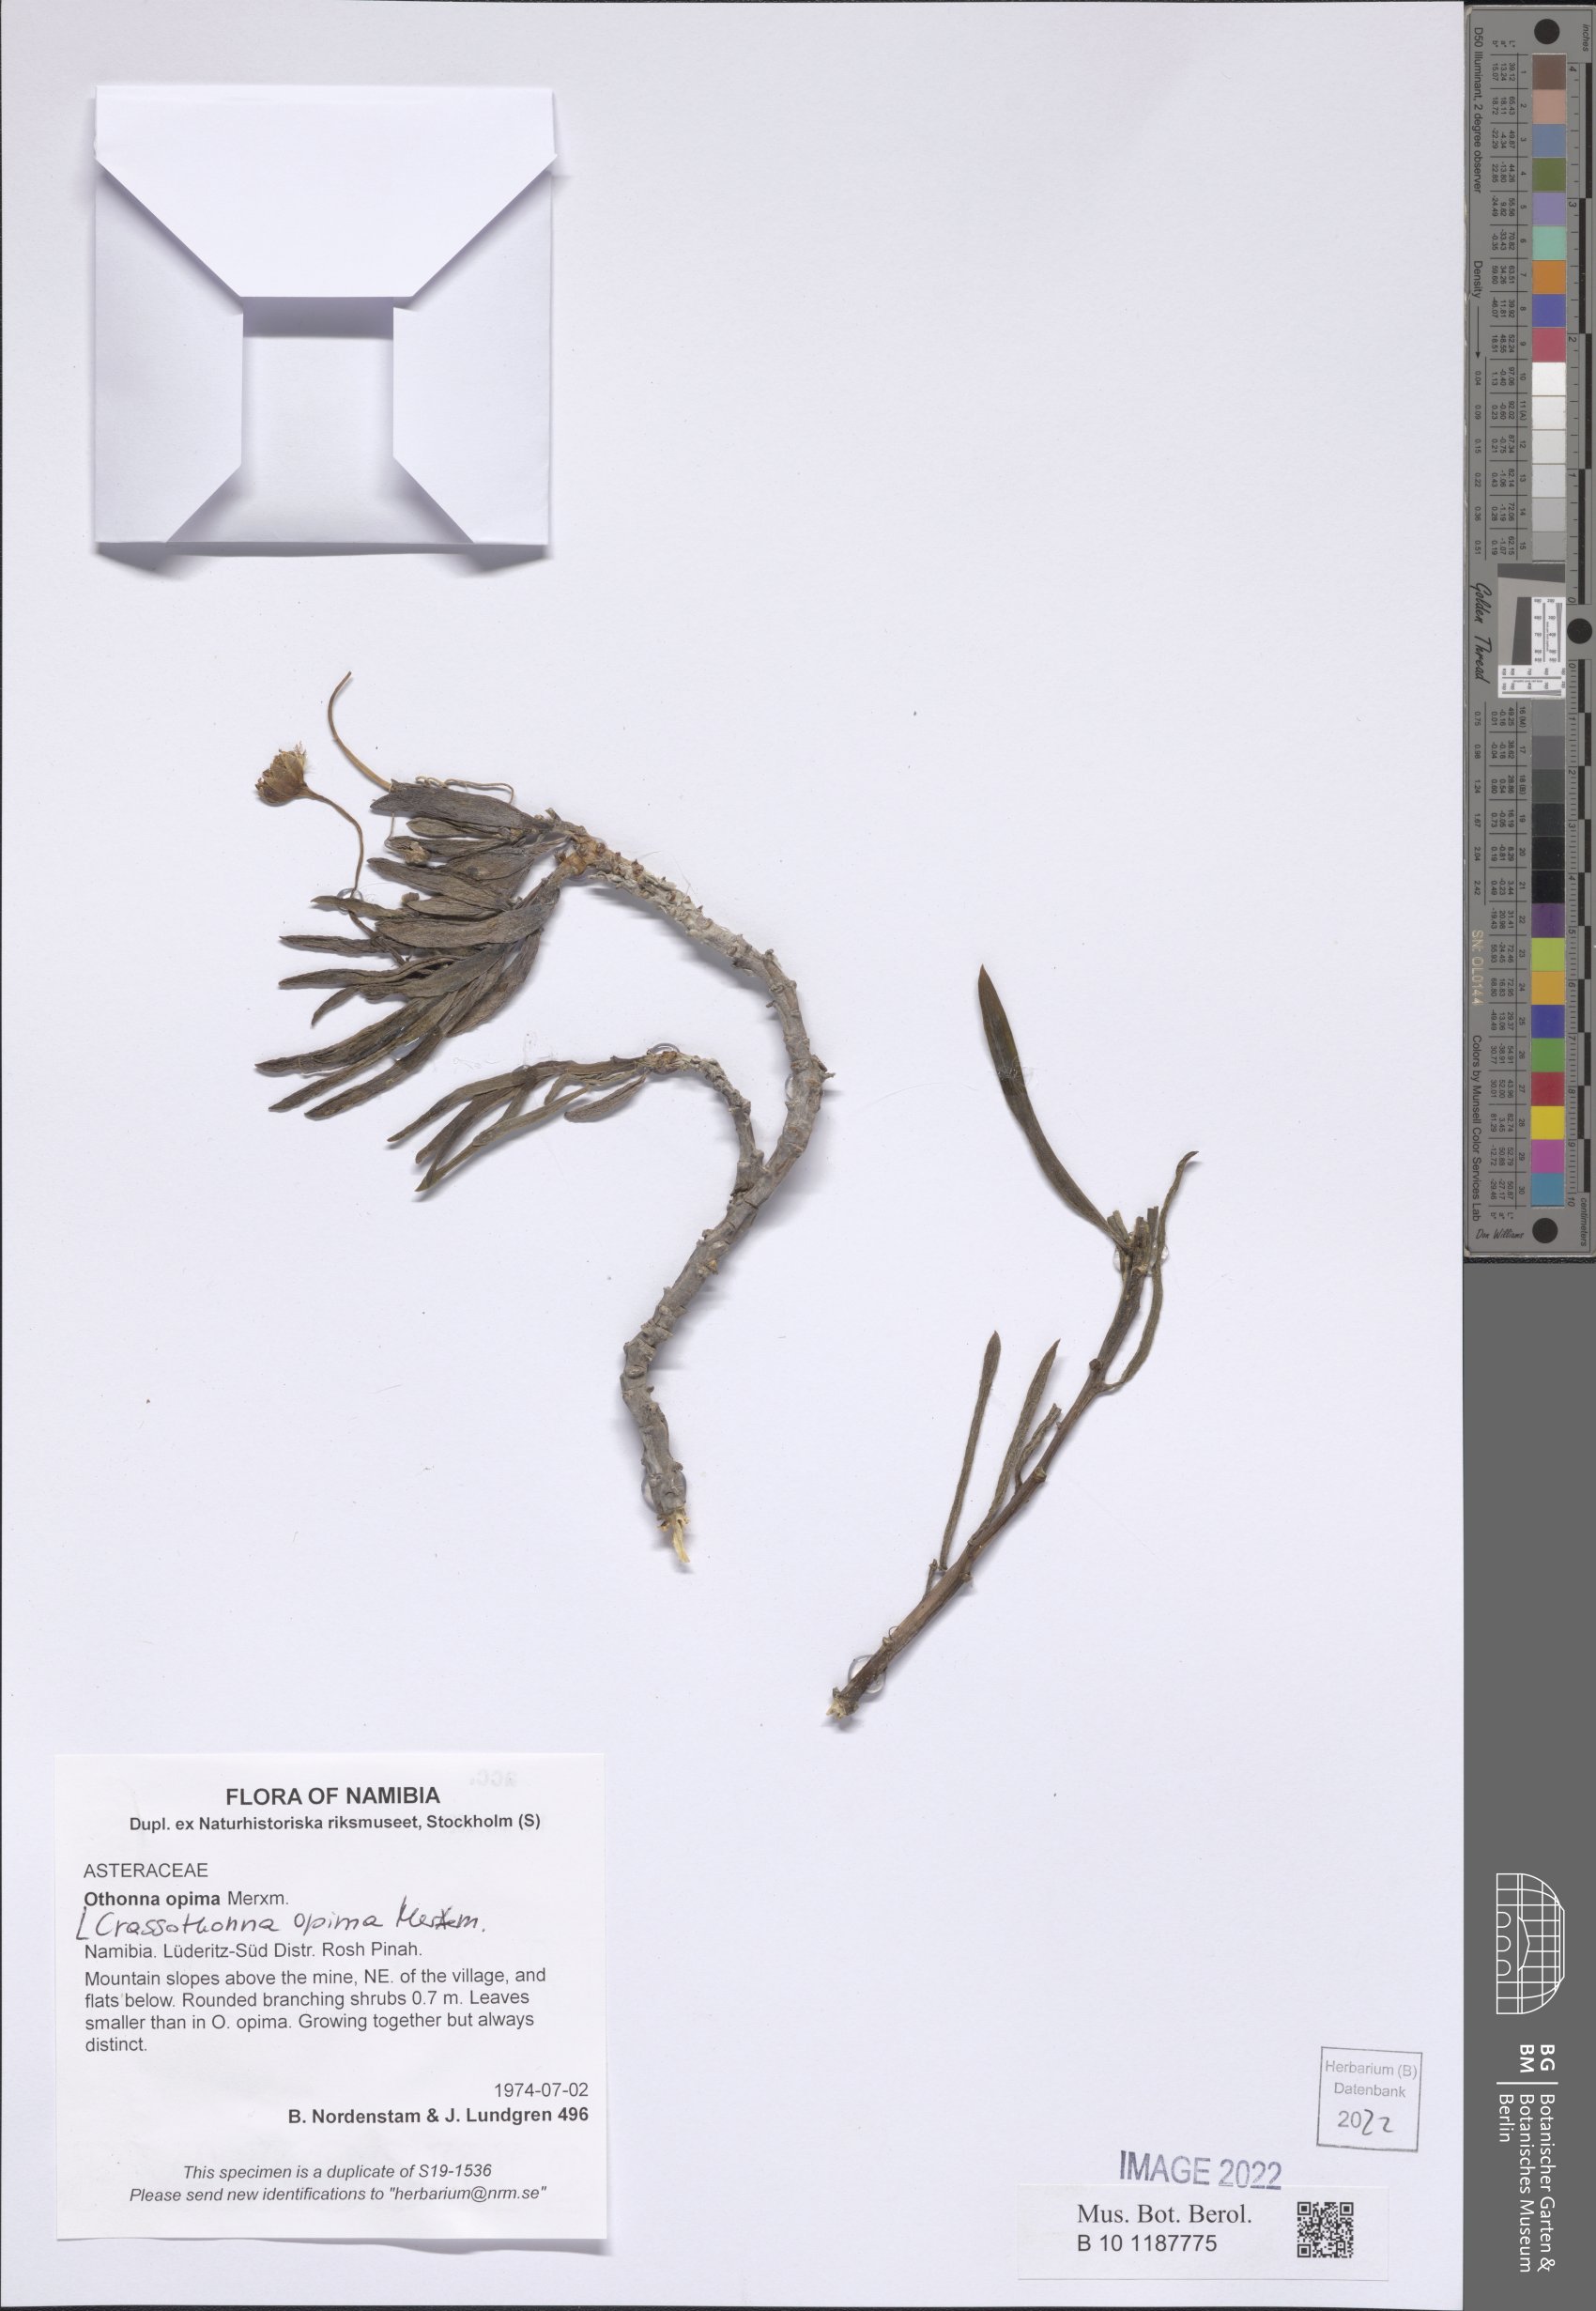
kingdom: Plantae
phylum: Tracheophyta
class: Magnoliopsida
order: Asterales
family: Asteraceae
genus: Crassothonna
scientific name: Crassothonna opima
